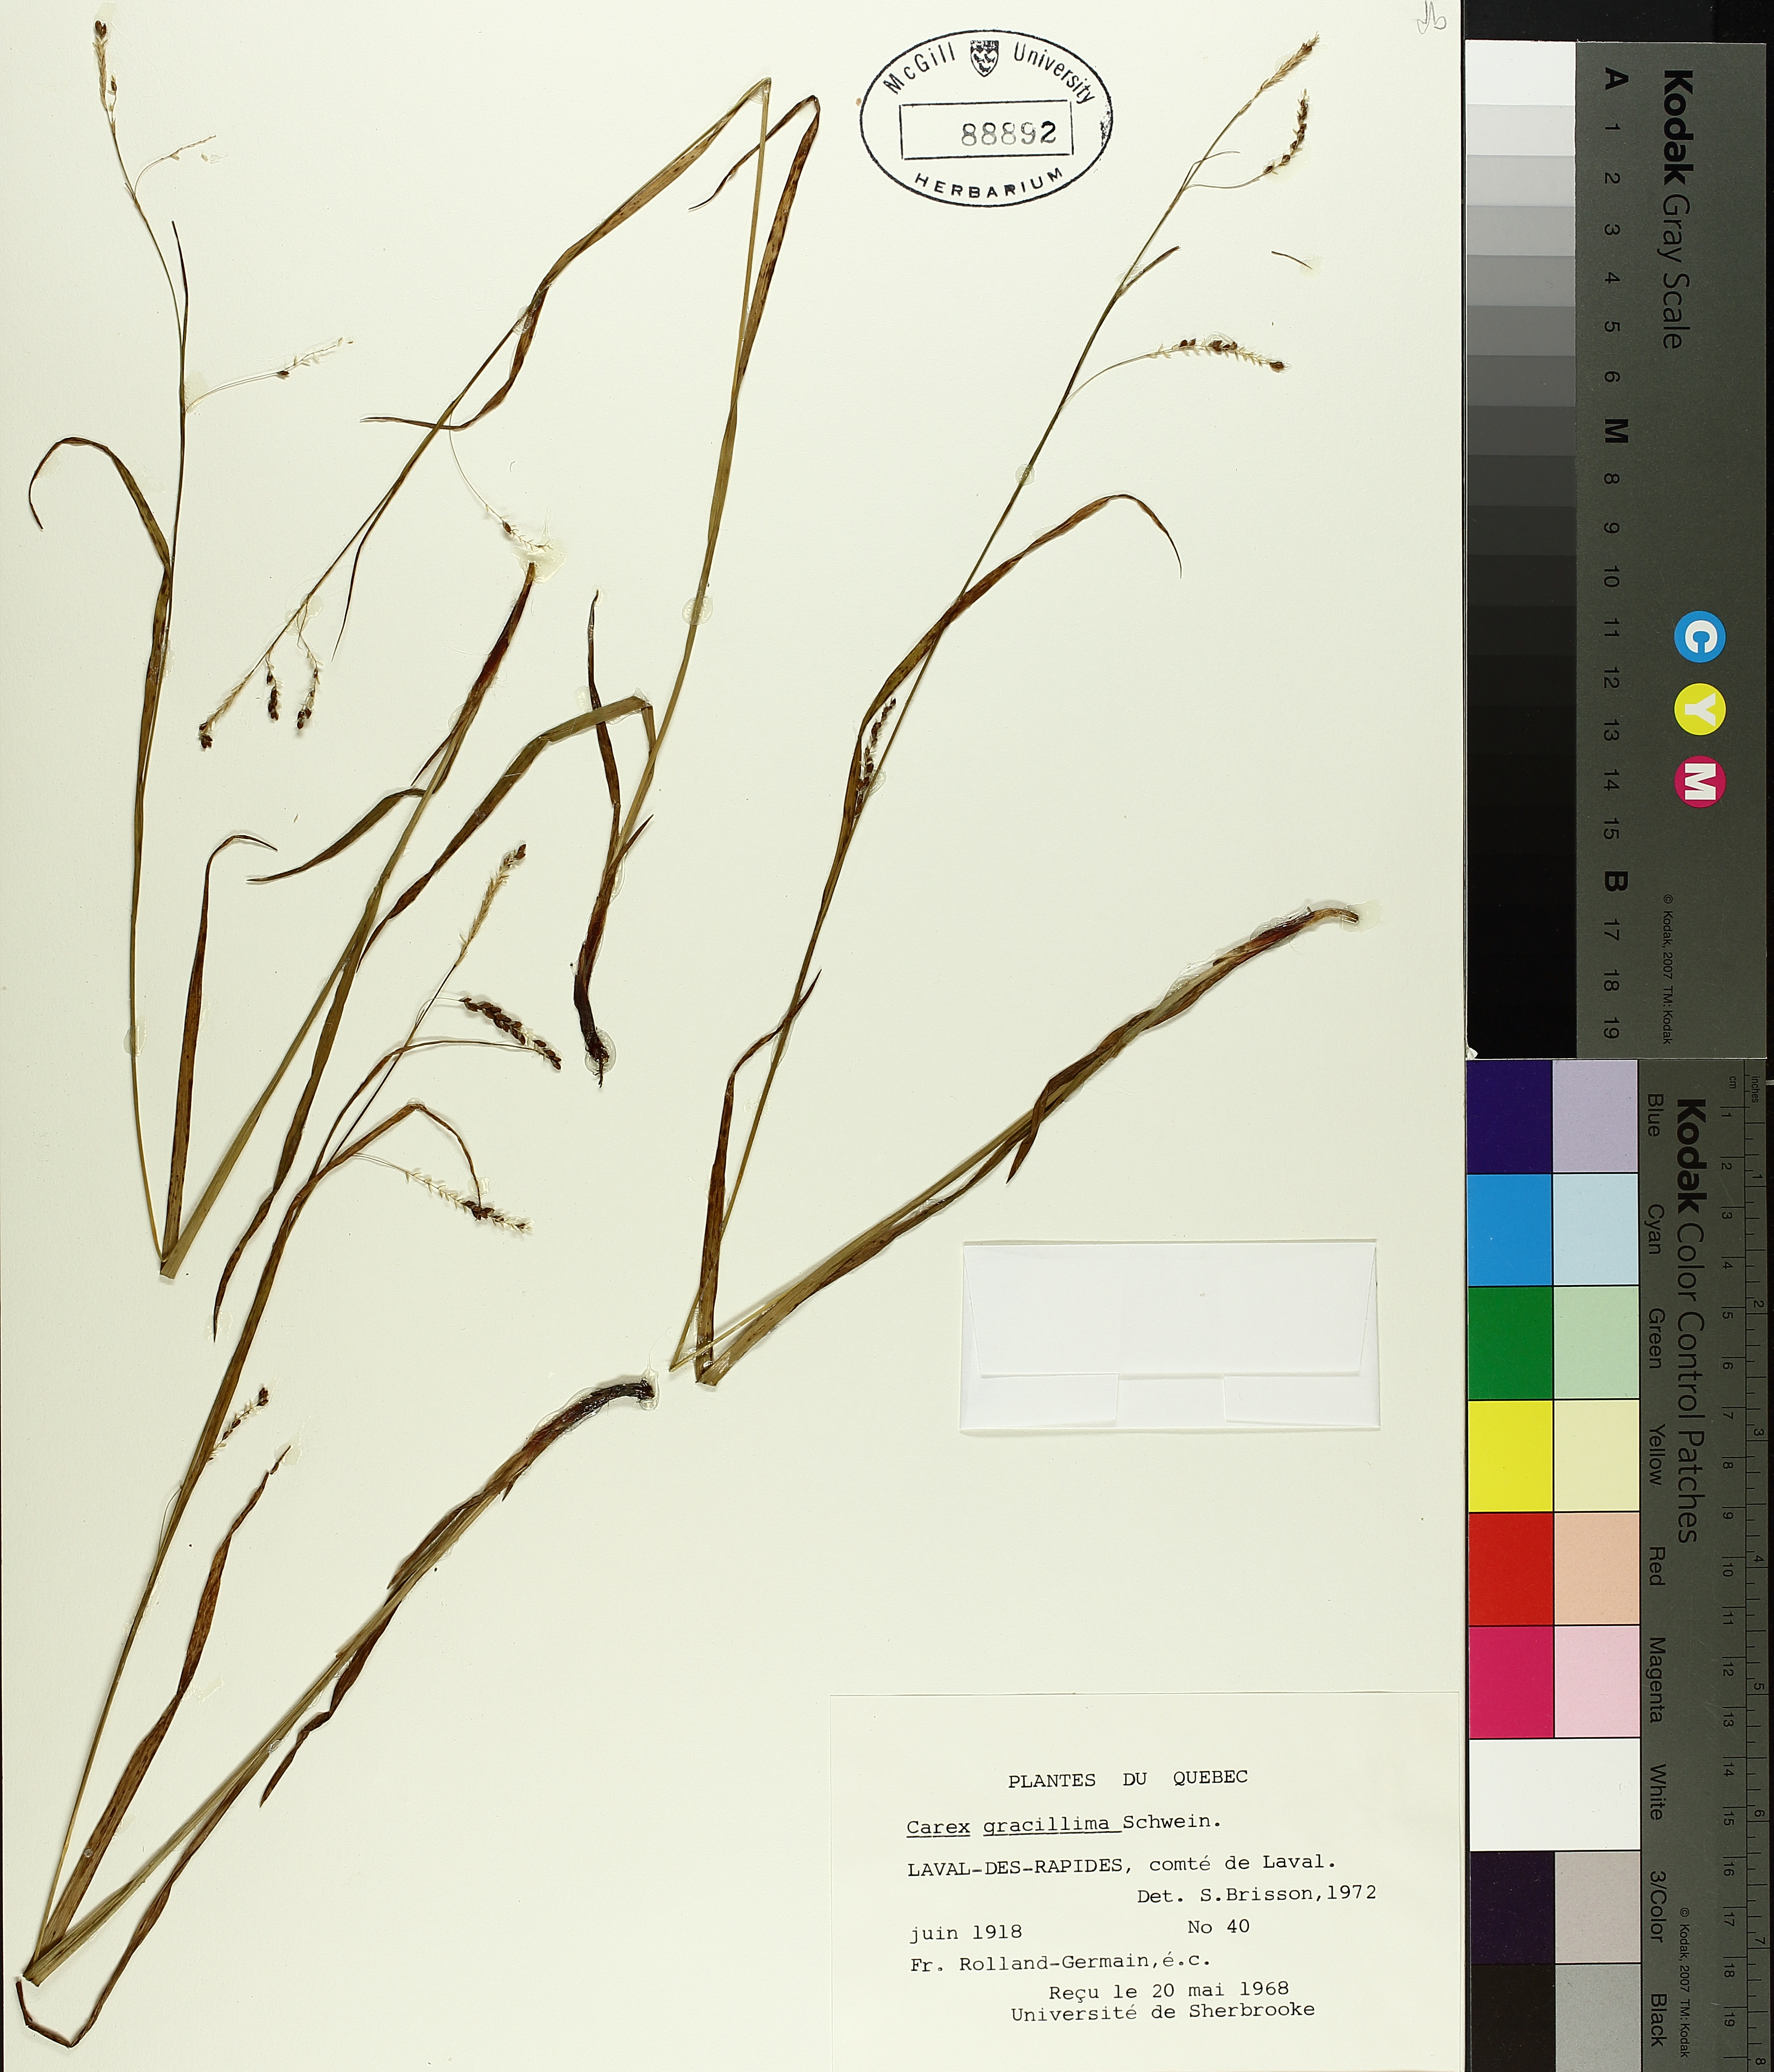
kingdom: Plantae
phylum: Tracheophyta
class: Liliopsida
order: Poales
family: Cyperaceae
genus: Carex
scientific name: Carex gracillima
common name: Graceful sedge
